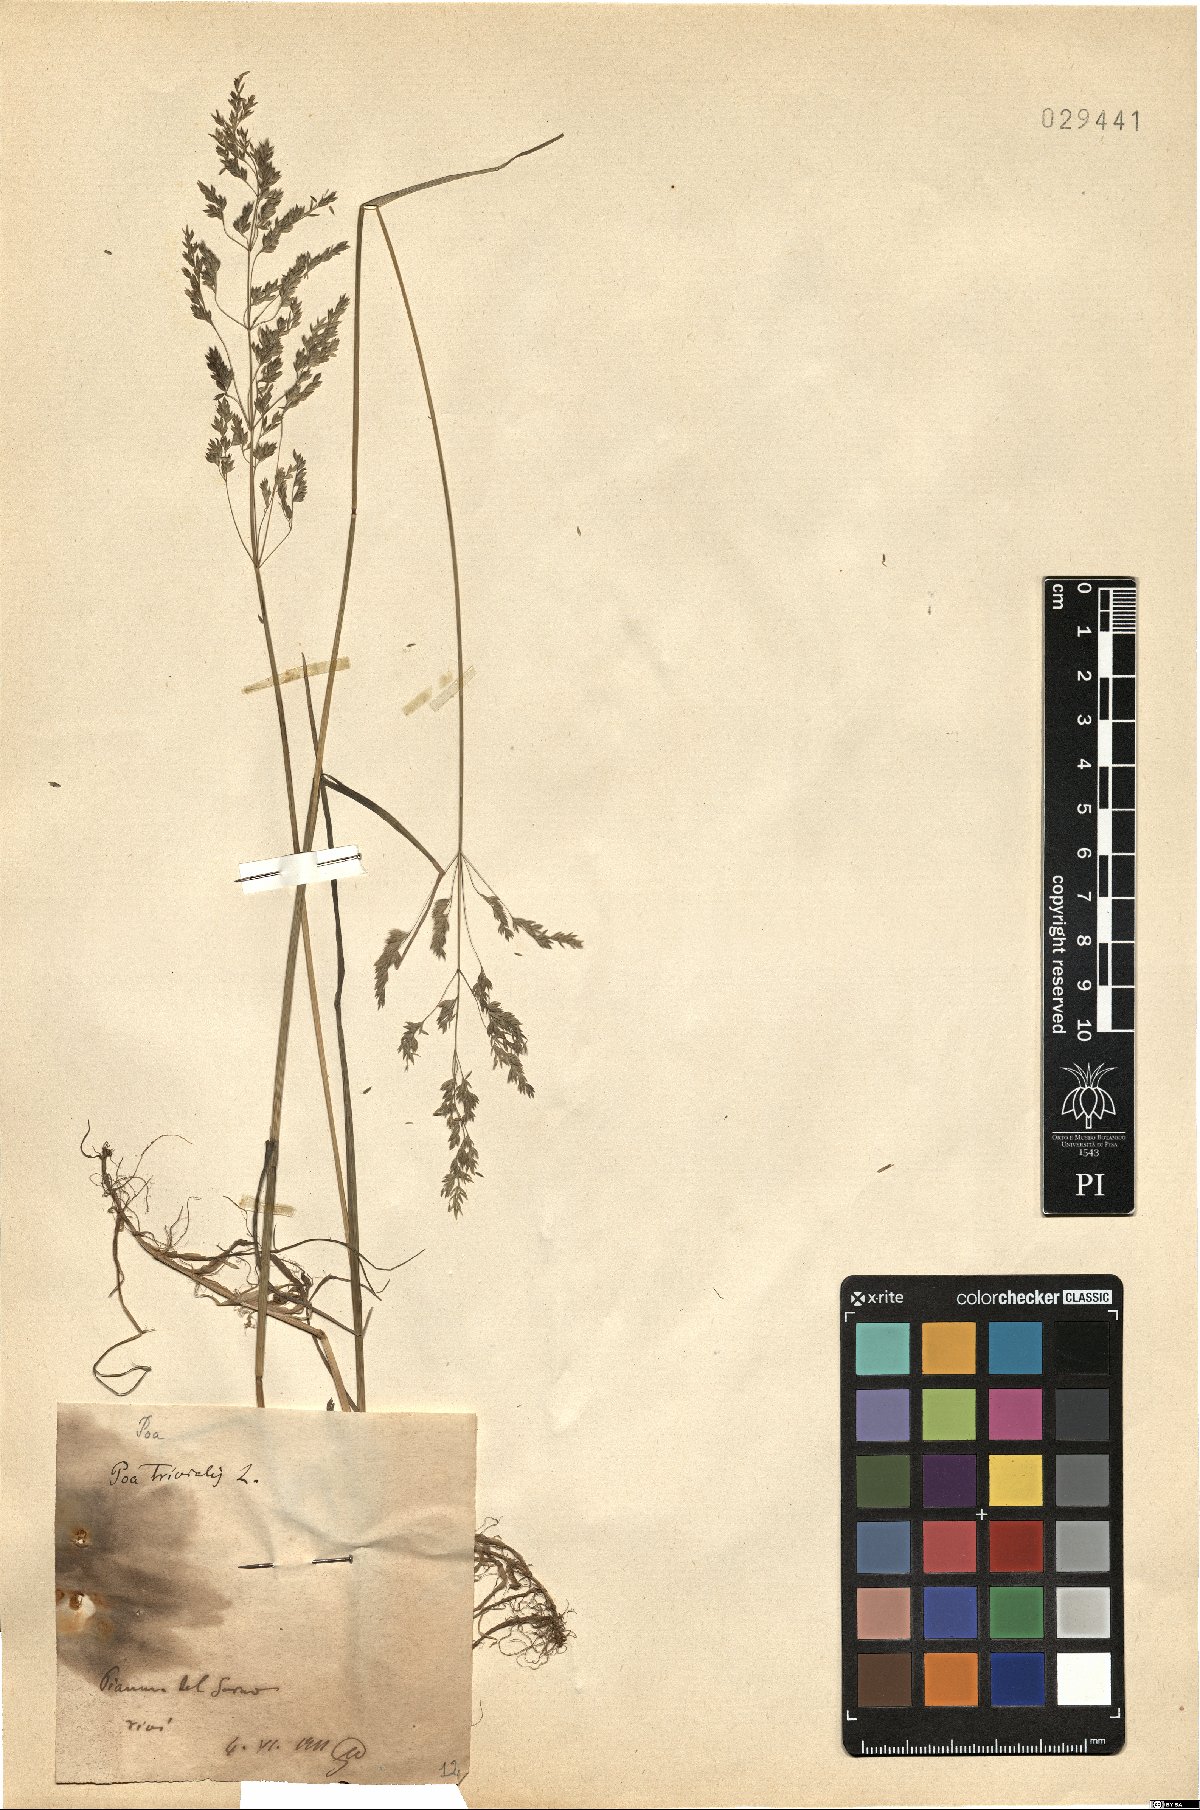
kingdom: Plantae
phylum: Tracheophyta
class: Liliopsida
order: Poales
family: Poaceae
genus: Poa
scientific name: Poa trivialis
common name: Rough bluegrass
